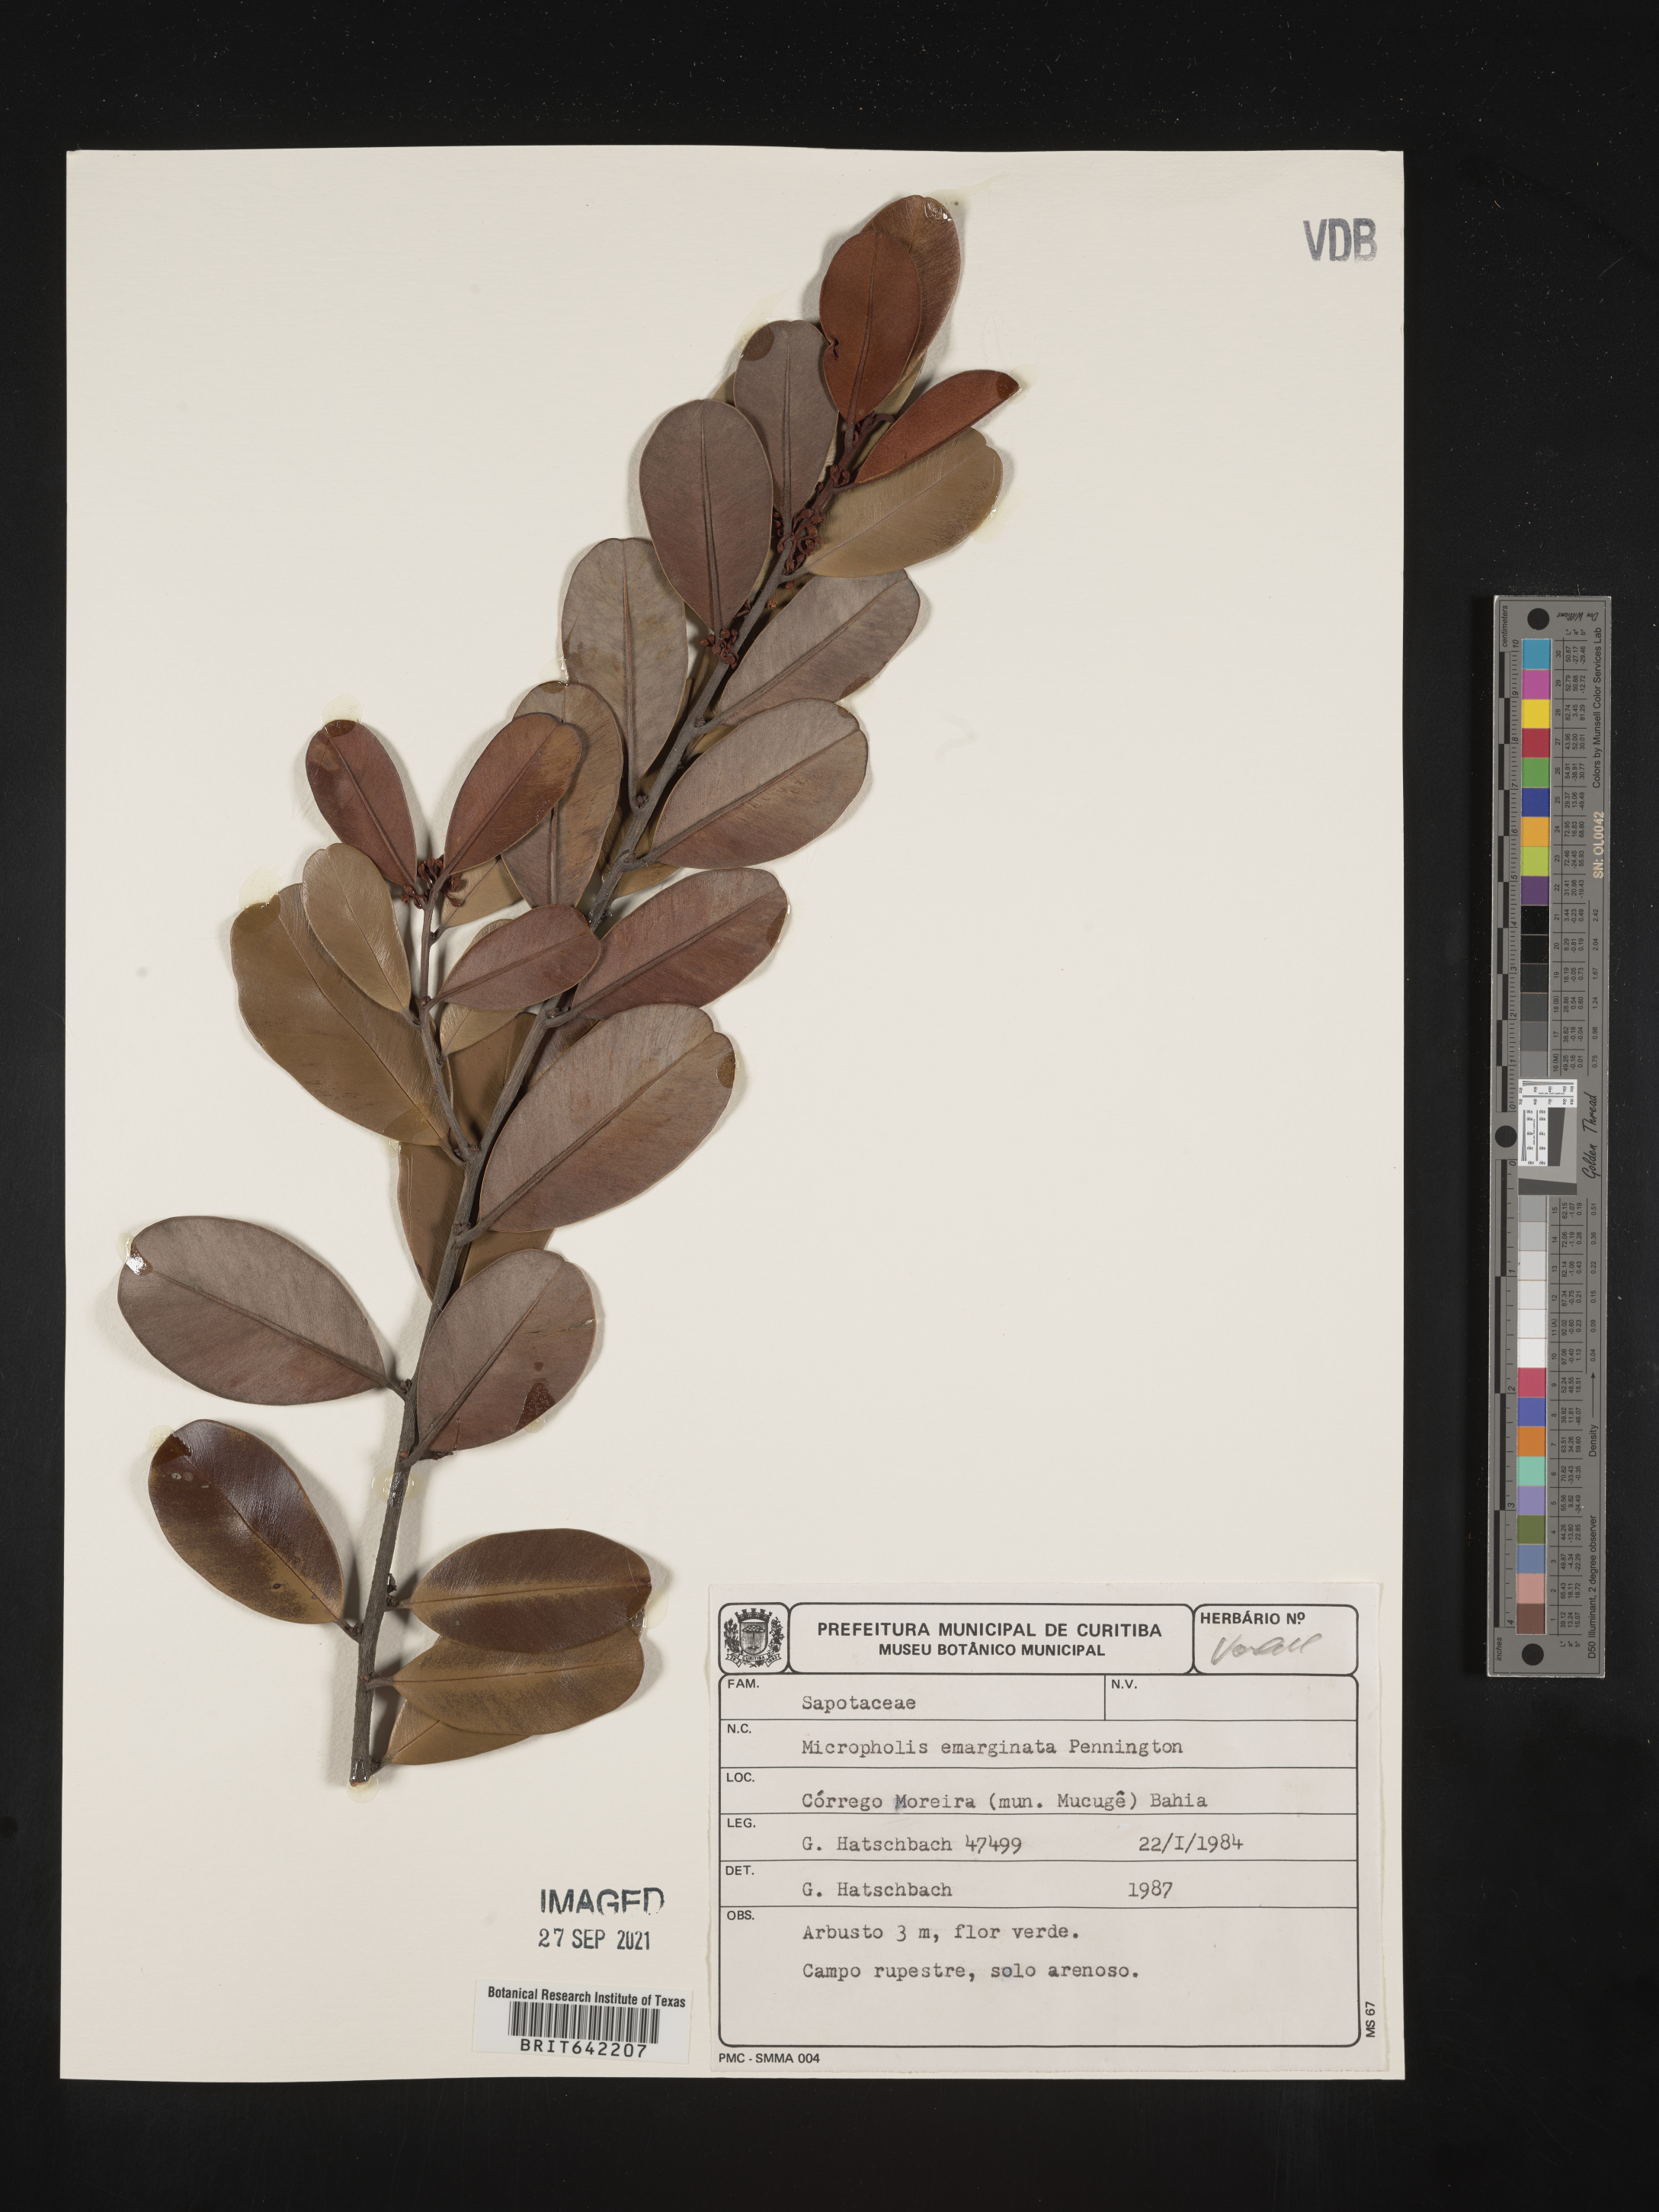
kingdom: Plantae
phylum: Tracheophyta
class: Magnoliopsida
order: Ericales
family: Sapotaceae
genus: Micropholis
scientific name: Micropholis
